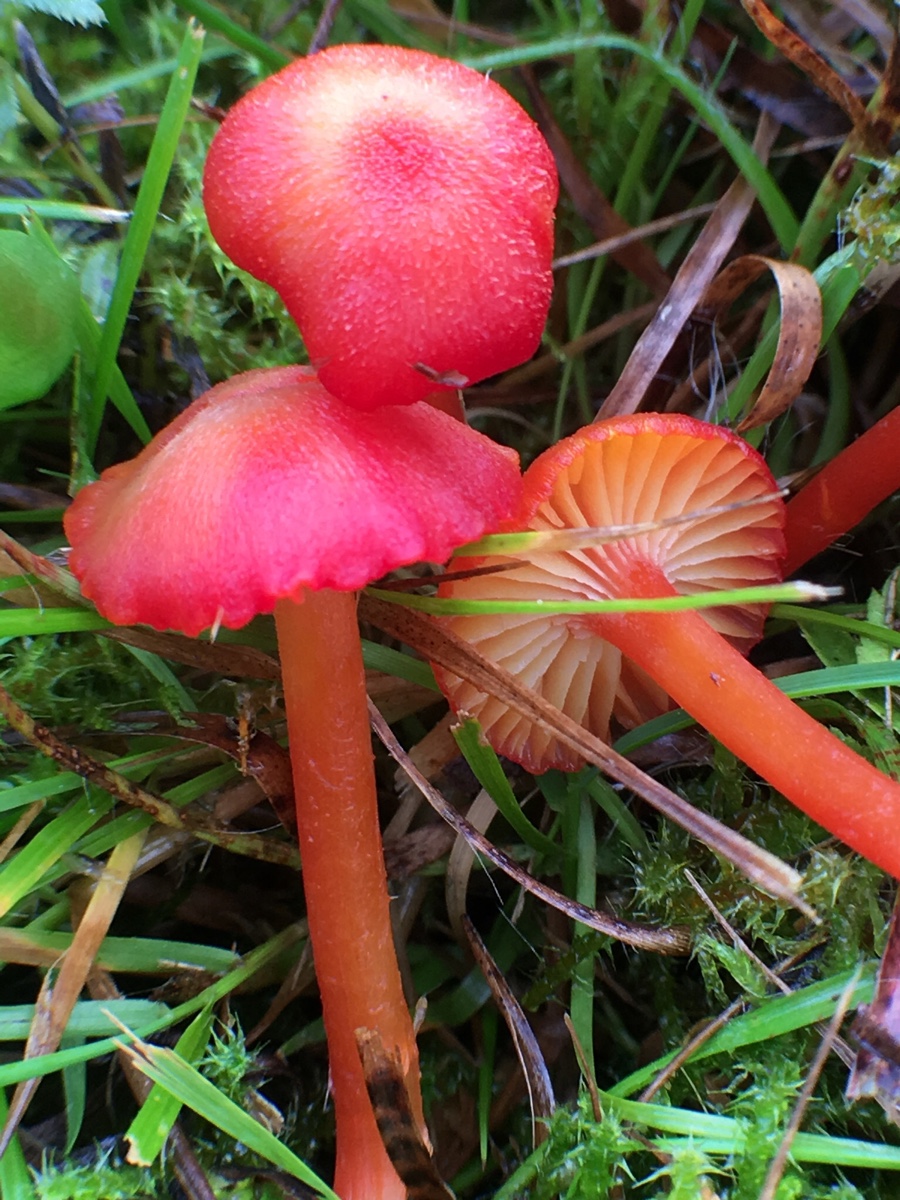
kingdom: Fungi
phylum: Basidiomycota
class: Agaricomycetes
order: Agaricales
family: Hygrophoraceae
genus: Hygrocybe
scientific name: Hygrocybe helobia
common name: hvidløgs-vokshat
